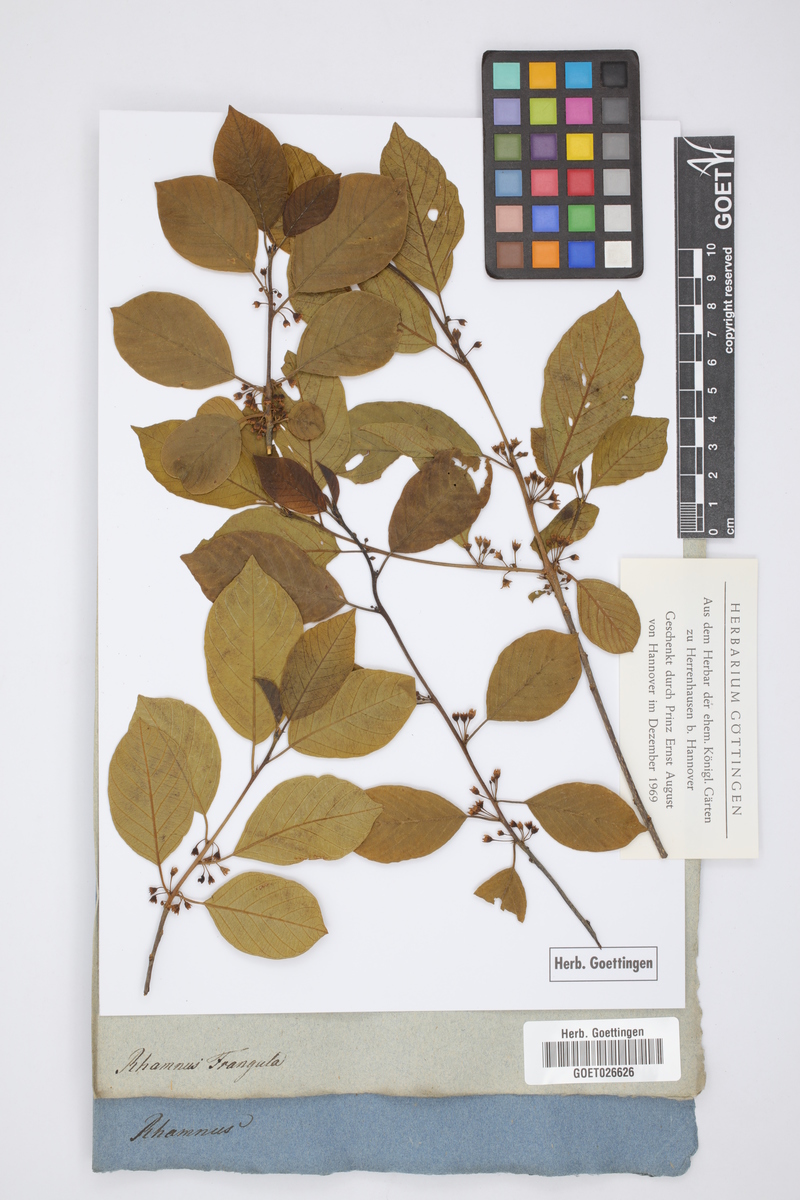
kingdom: Plantae
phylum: Tracheophyta
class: Magnoliopsida
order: Rosales
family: Rhamnaceae
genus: Frangula
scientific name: Frangula alnus
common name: Alder buckthorn
